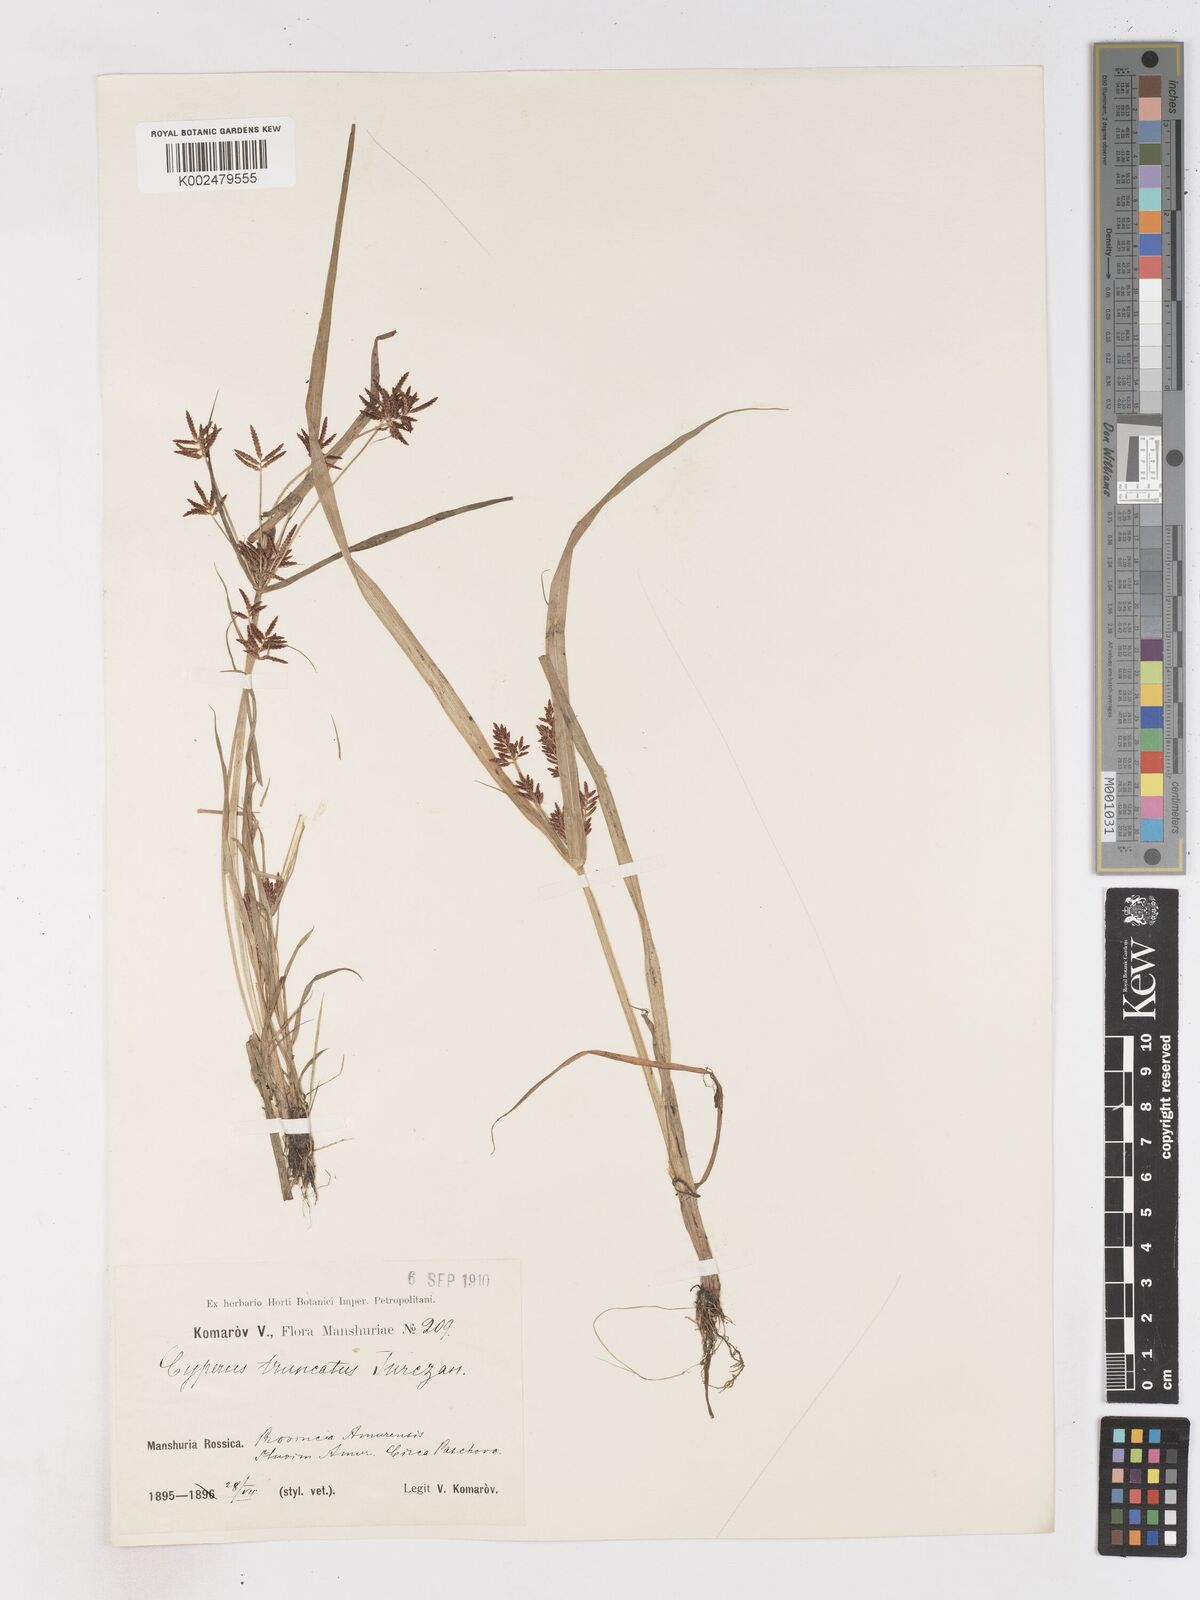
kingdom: Plantae
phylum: Tracheophyta
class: Liliopsida
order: Poales
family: Cyperaceae
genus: Cyperus
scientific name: Cyperus orthostachyus
